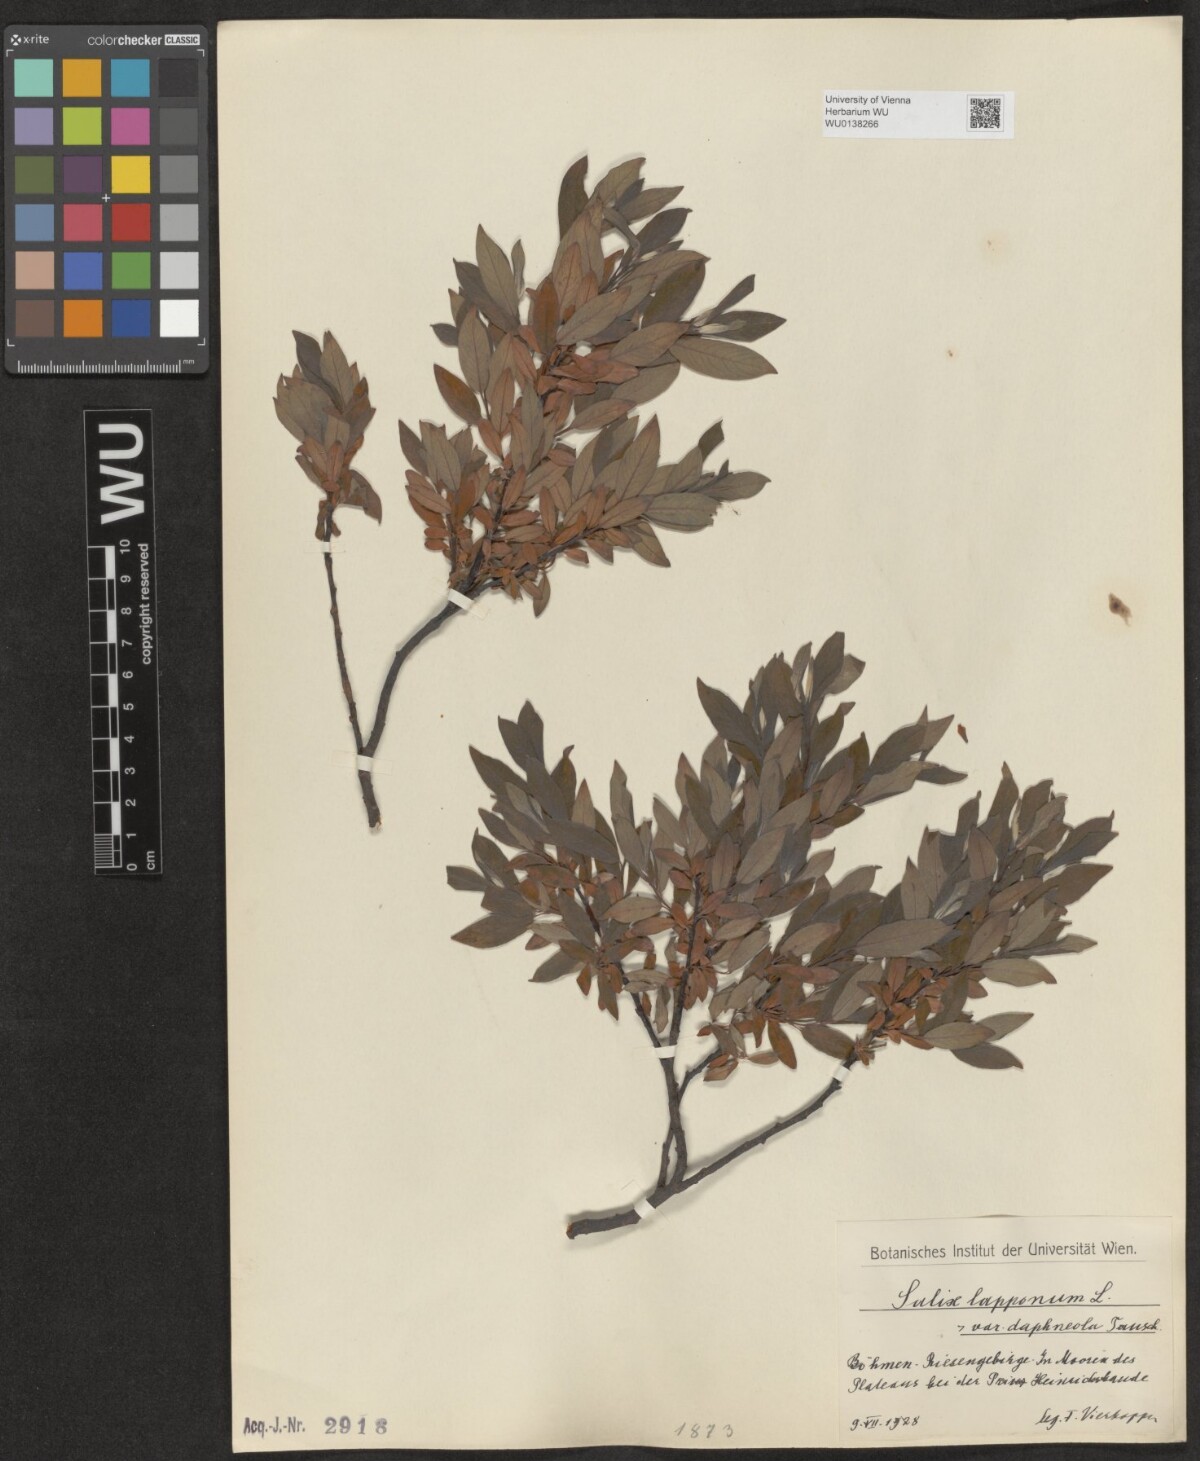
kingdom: Plantae
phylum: Tracheophyta
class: Magnoliopsida
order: Malpighiales
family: Salicaceae
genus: Salix
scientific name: Salix lapponum
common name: Downy willow
